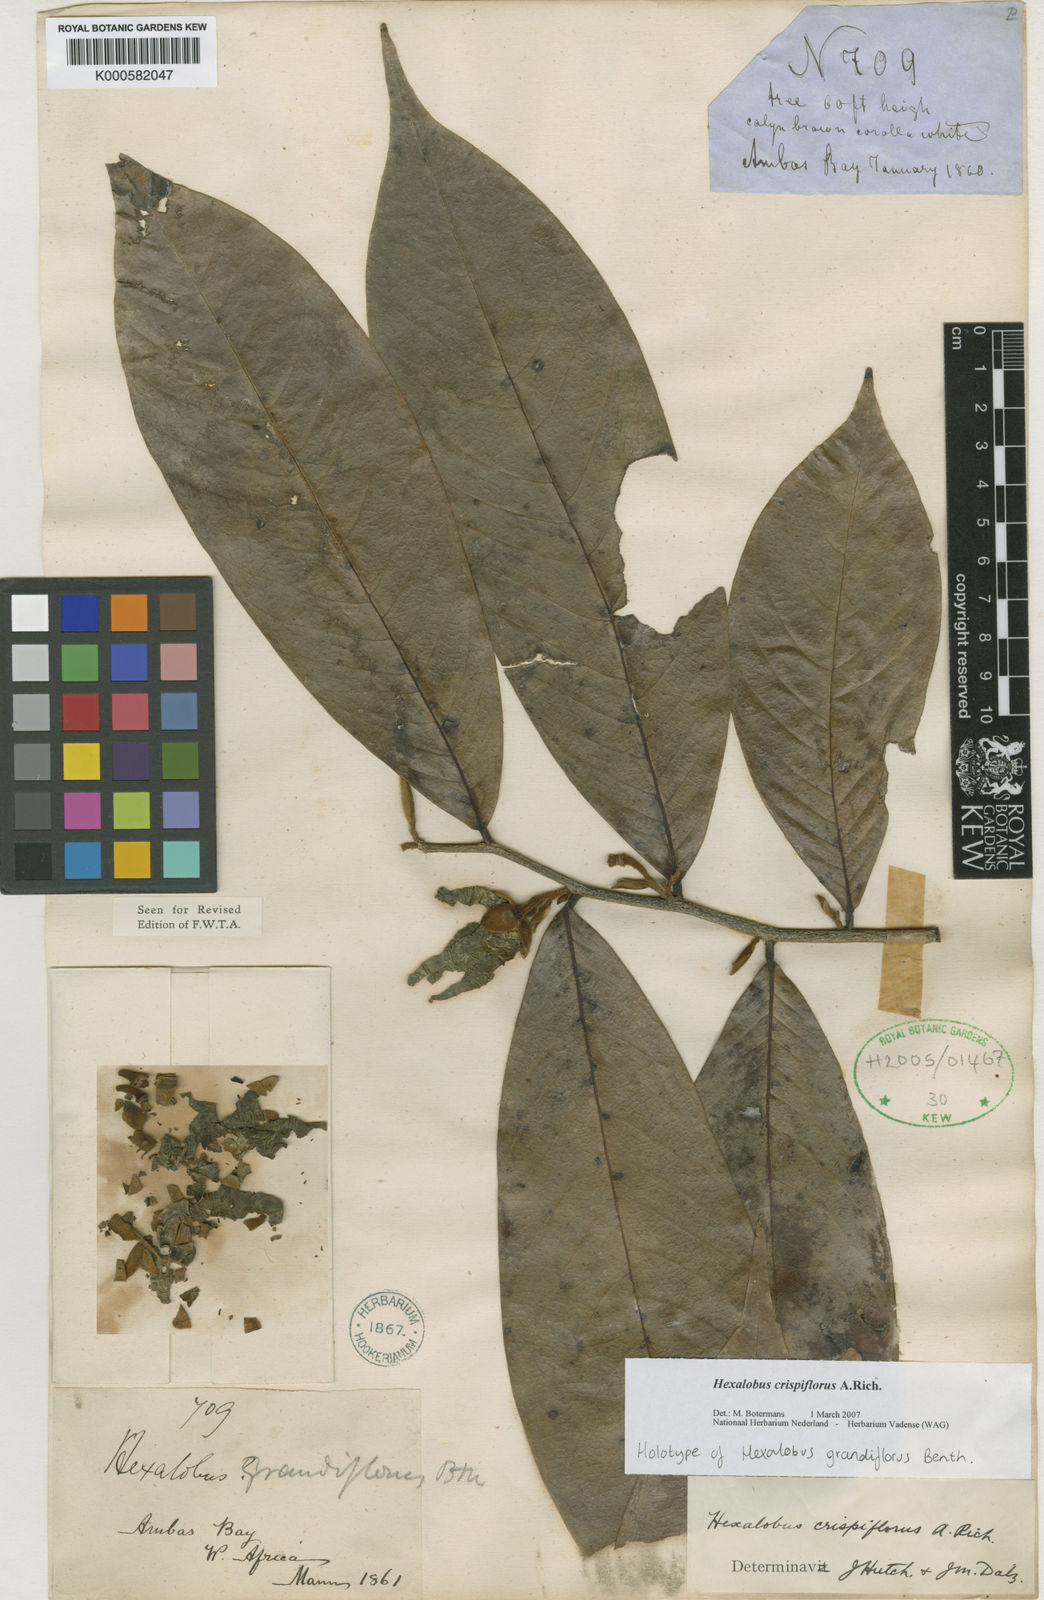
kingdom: Plantae
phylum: Tracheophyta
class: Magnoliopsida
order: Magnoliales
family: Annonaceae
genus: Hexalobus
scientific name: Hexalobus crispiflorus
